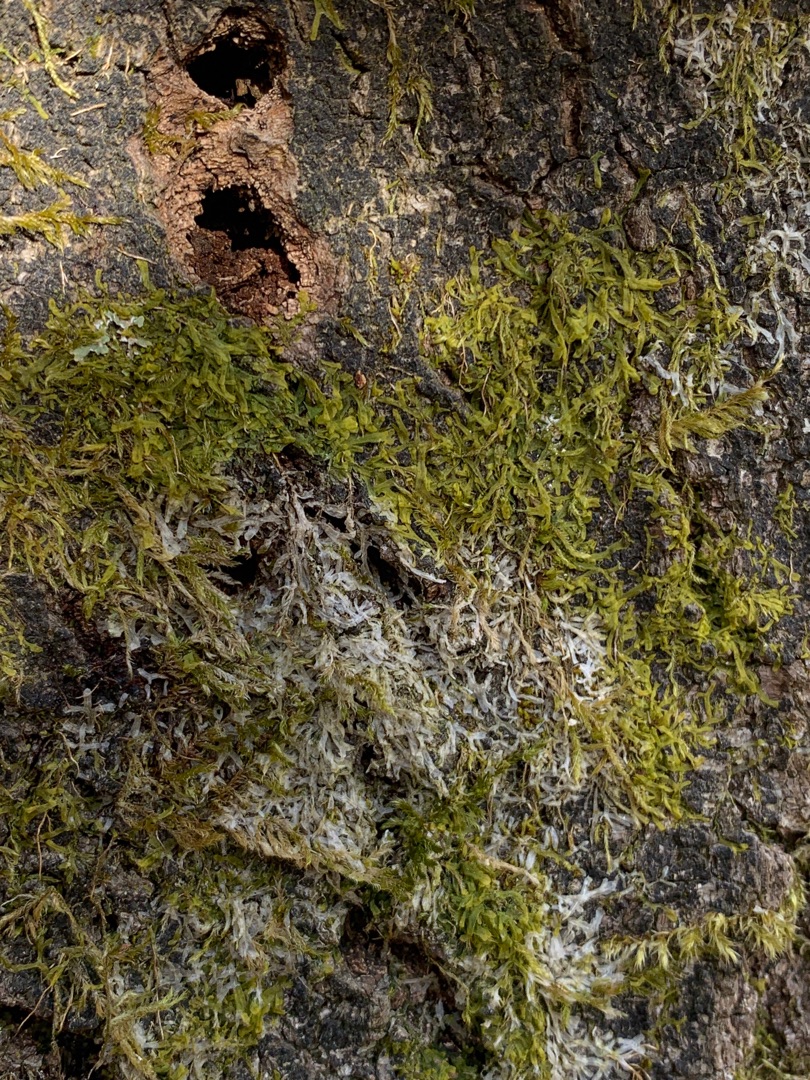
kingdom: Plantae
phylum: Marchantiophyta
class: Jungermanniopsida
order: Metzgeriales
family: Metzgeriaceae
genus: Metzgeria
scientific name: Metzgeria furcata
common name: Almindelig gaffelløv
